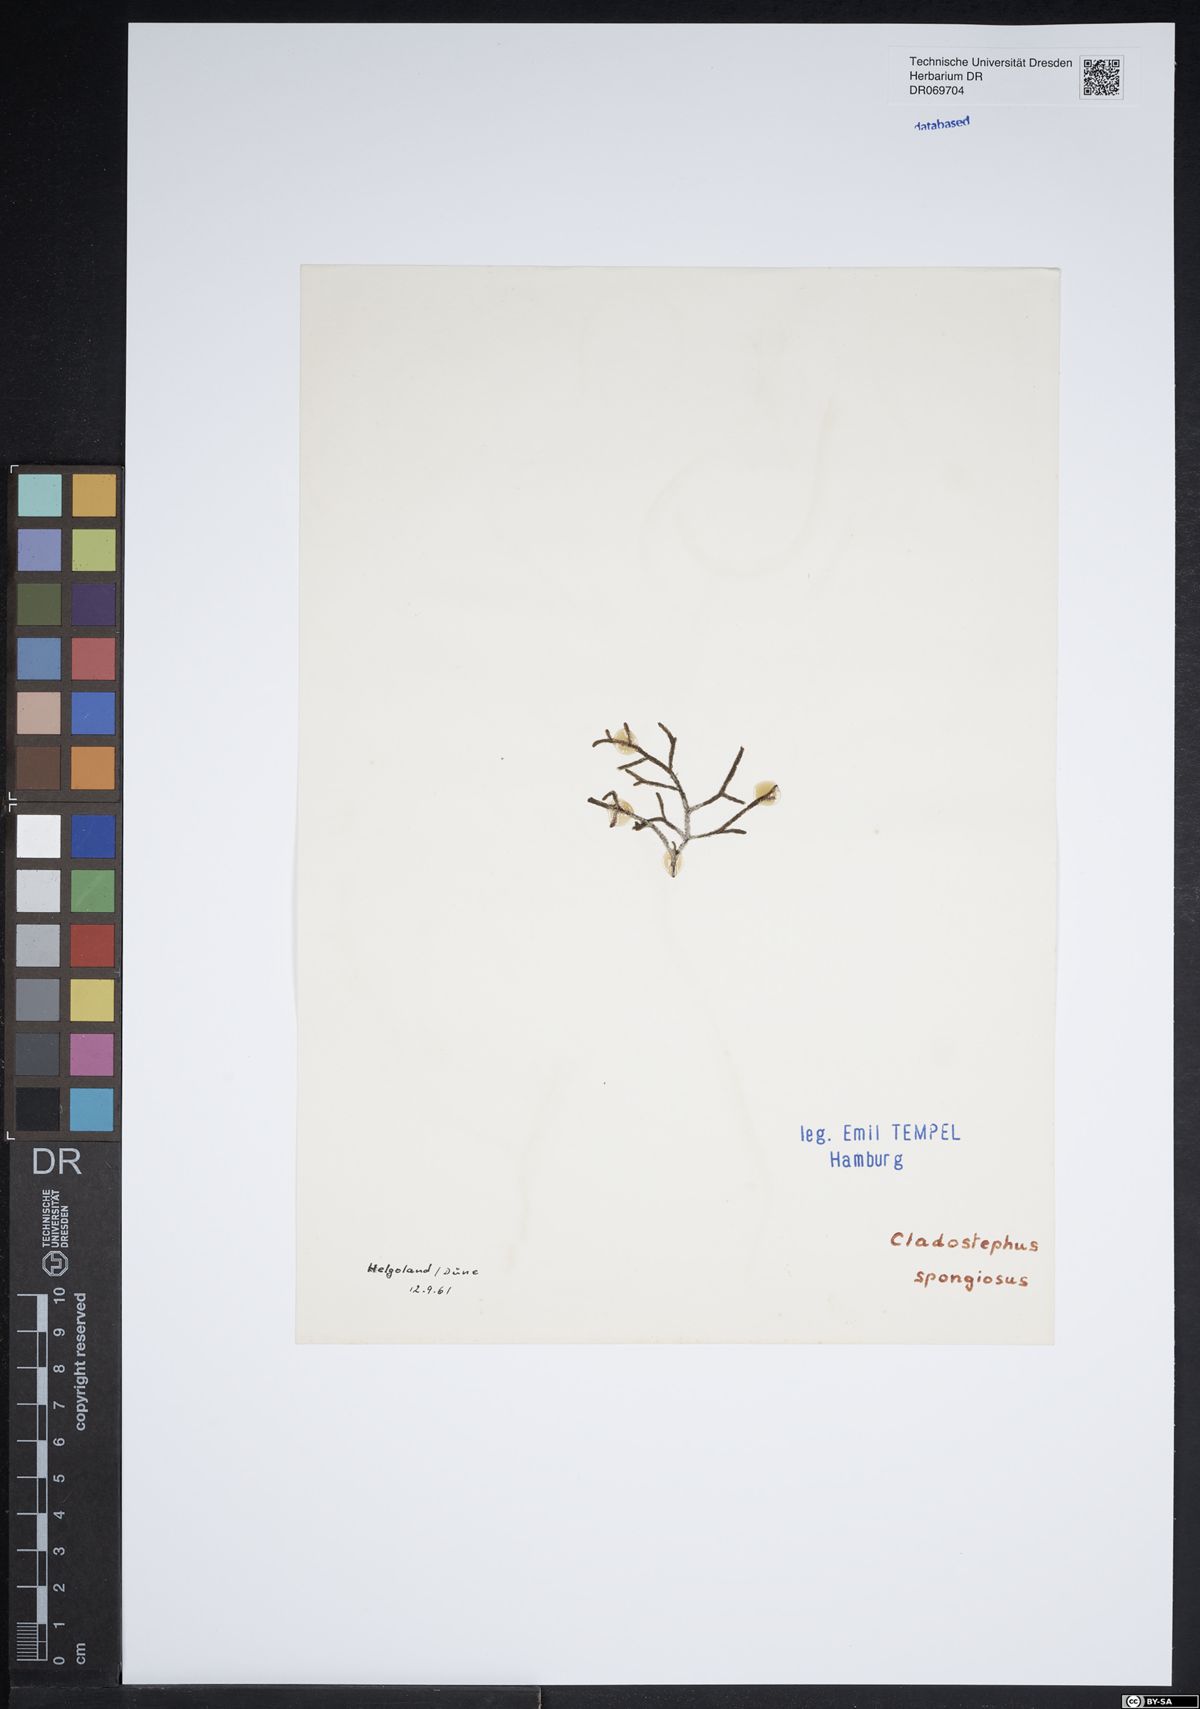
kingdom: Chromista
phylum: Ochrophyta
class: Phaeophyceae
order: Sphacelariales
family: Cladostephaceae
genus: Cladostephus
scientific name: Cladostephus spongiosus
